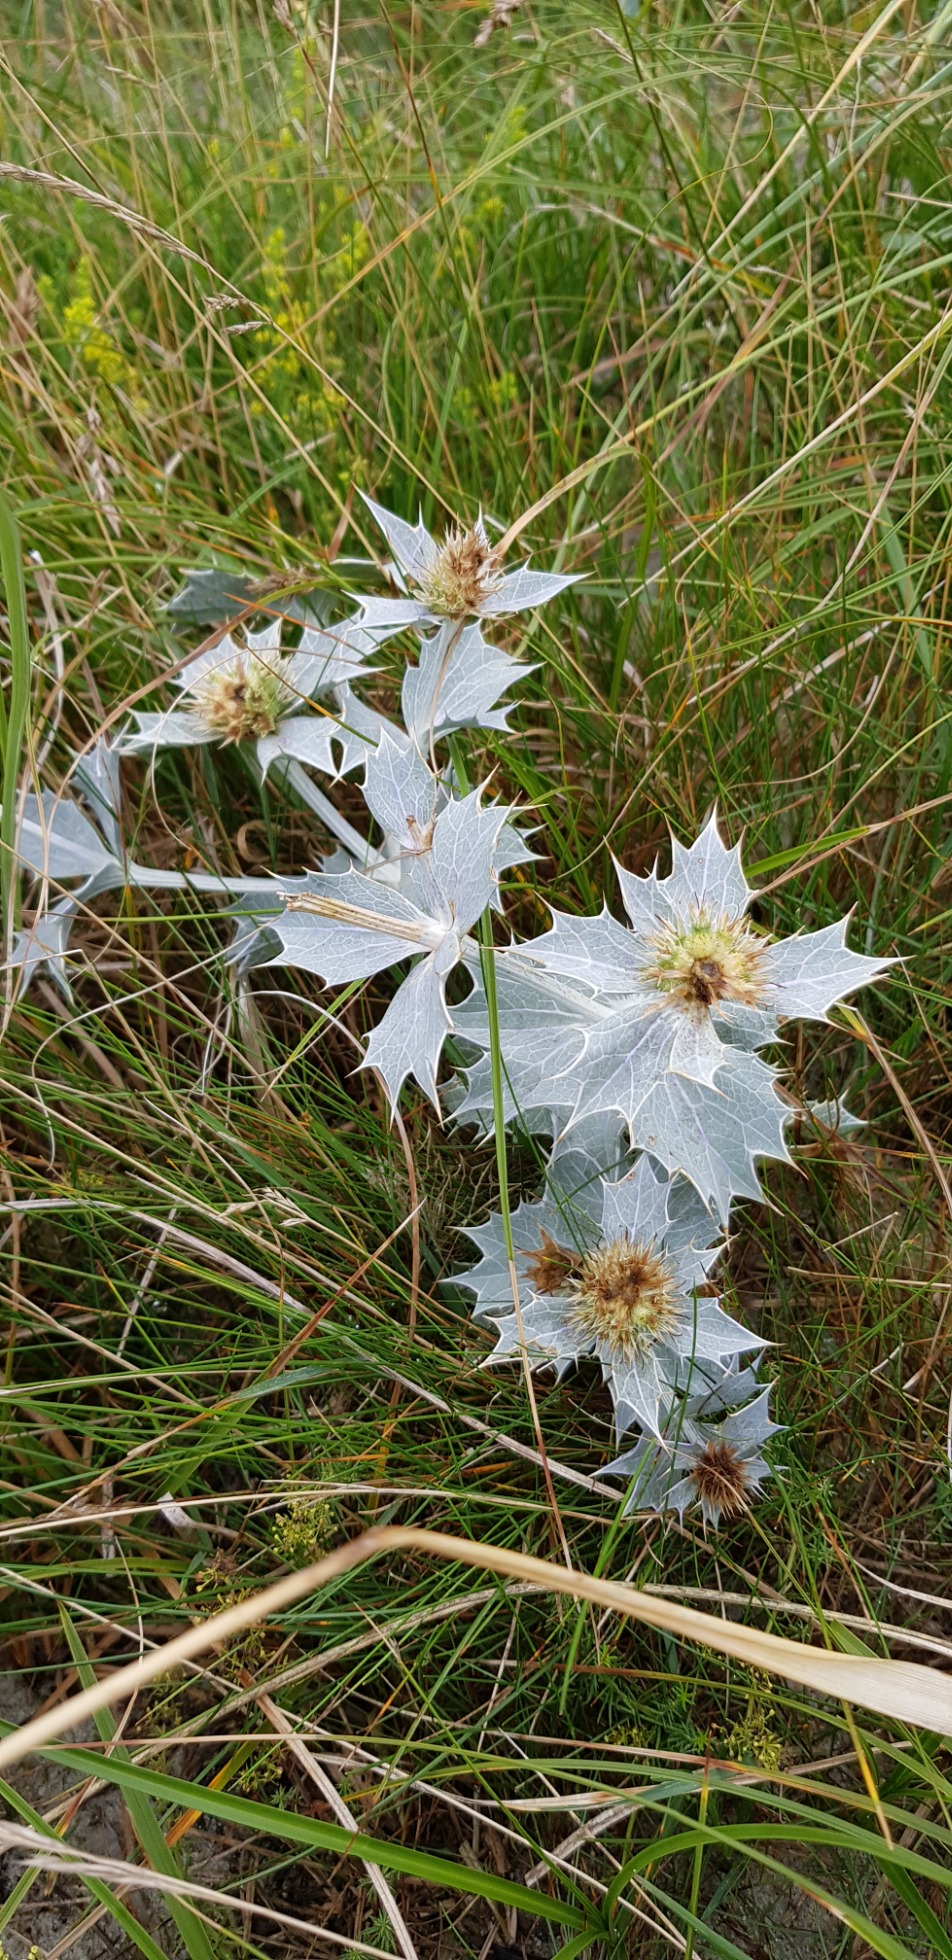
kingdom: Plantae
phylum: Tracheophyta
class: Magnoliopsida
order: Apiales
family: Apiaceae
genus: Eryngium
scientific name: Eryngium maritimum
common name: Strand-mandstro
